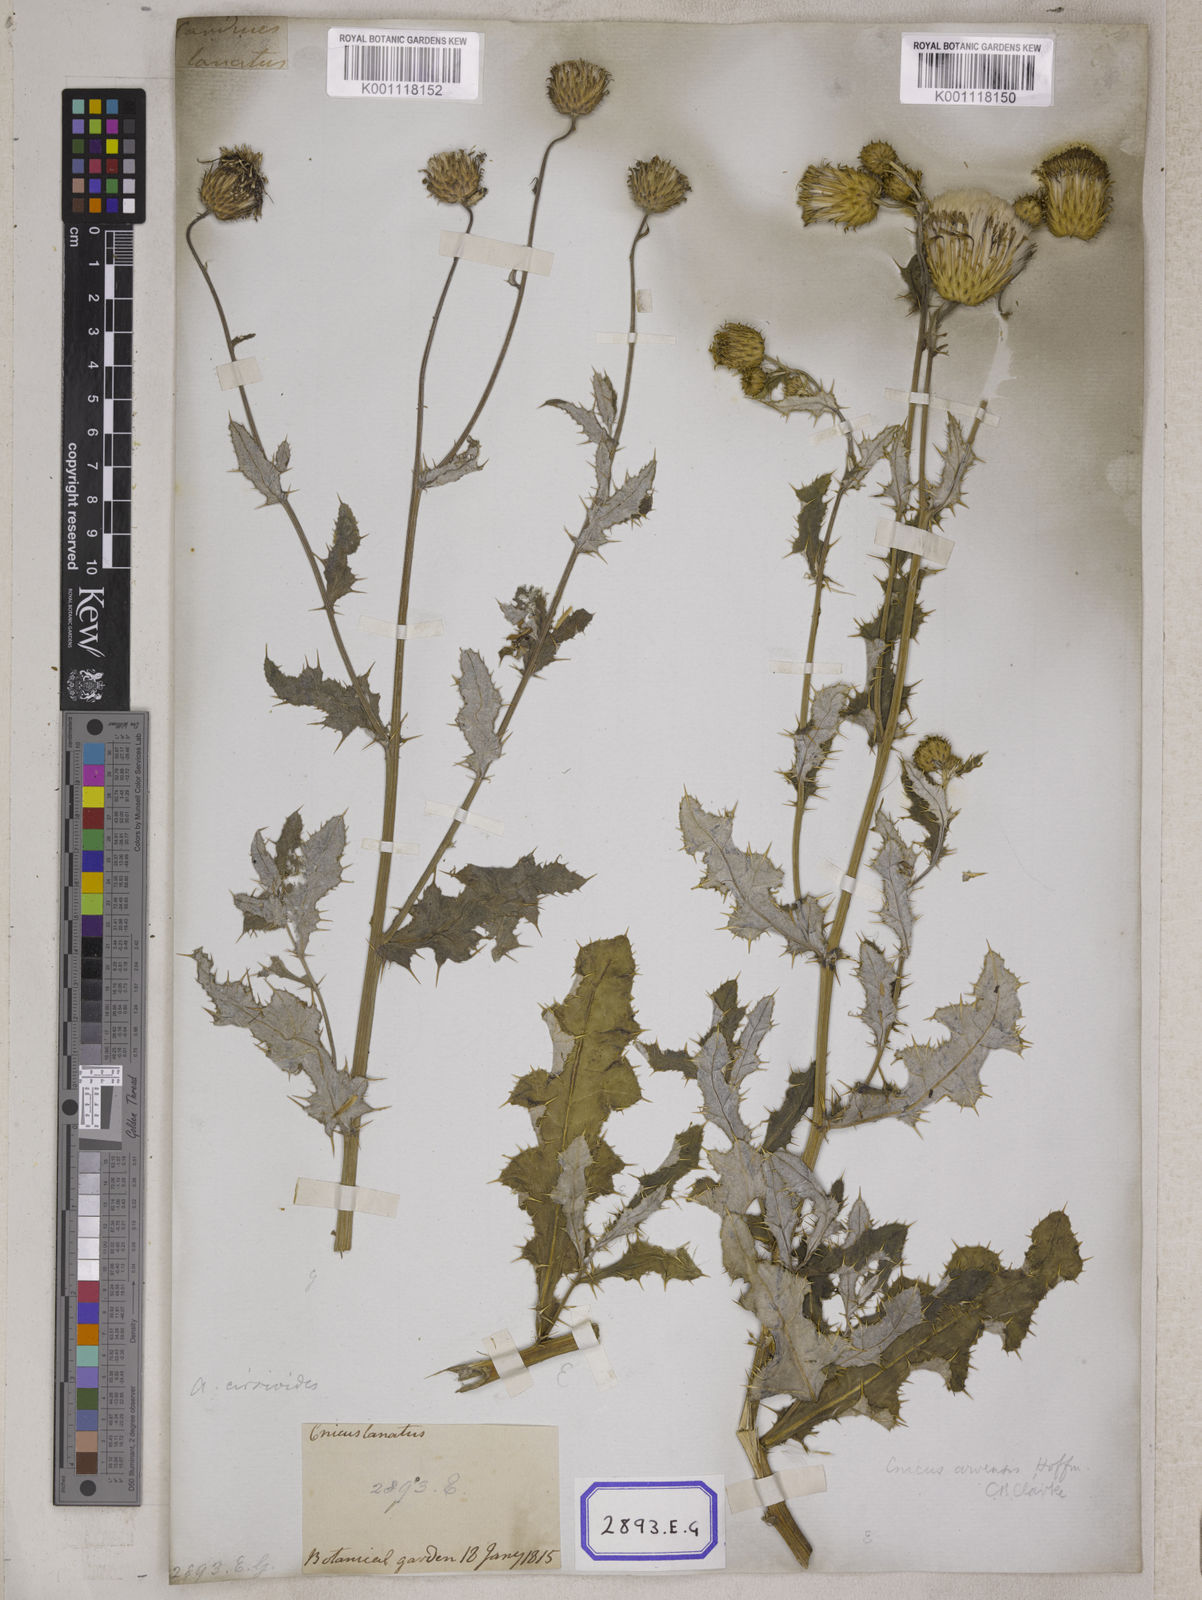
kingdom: Plantae
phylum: Tracheophyta
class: Magnoliopsida
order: Asterales
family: Asteraceae
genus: Jurinea
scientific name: Jurinea heteromalla
